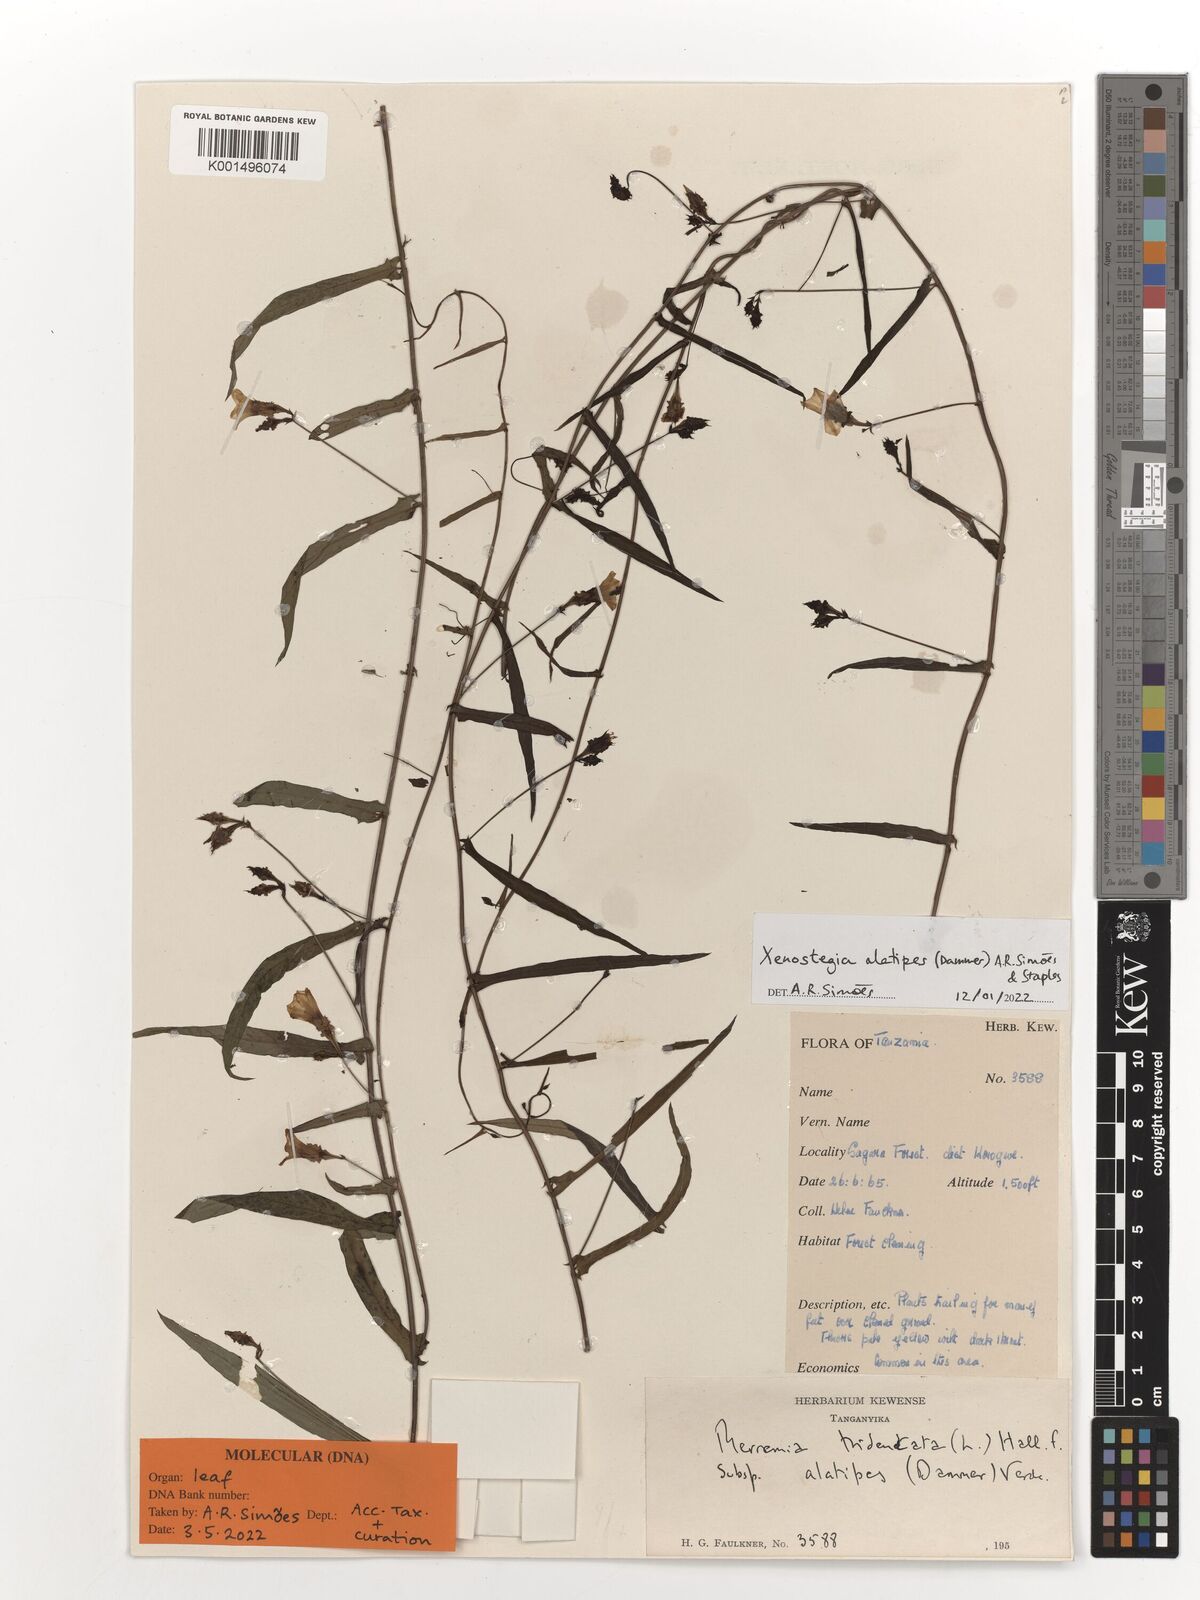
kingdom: Plantae
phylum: Tracheophyta
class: Magnoliopsida
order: Solanales
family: Convolvulaceae
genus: Xenostegia
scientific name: Xenostegia alatipes
